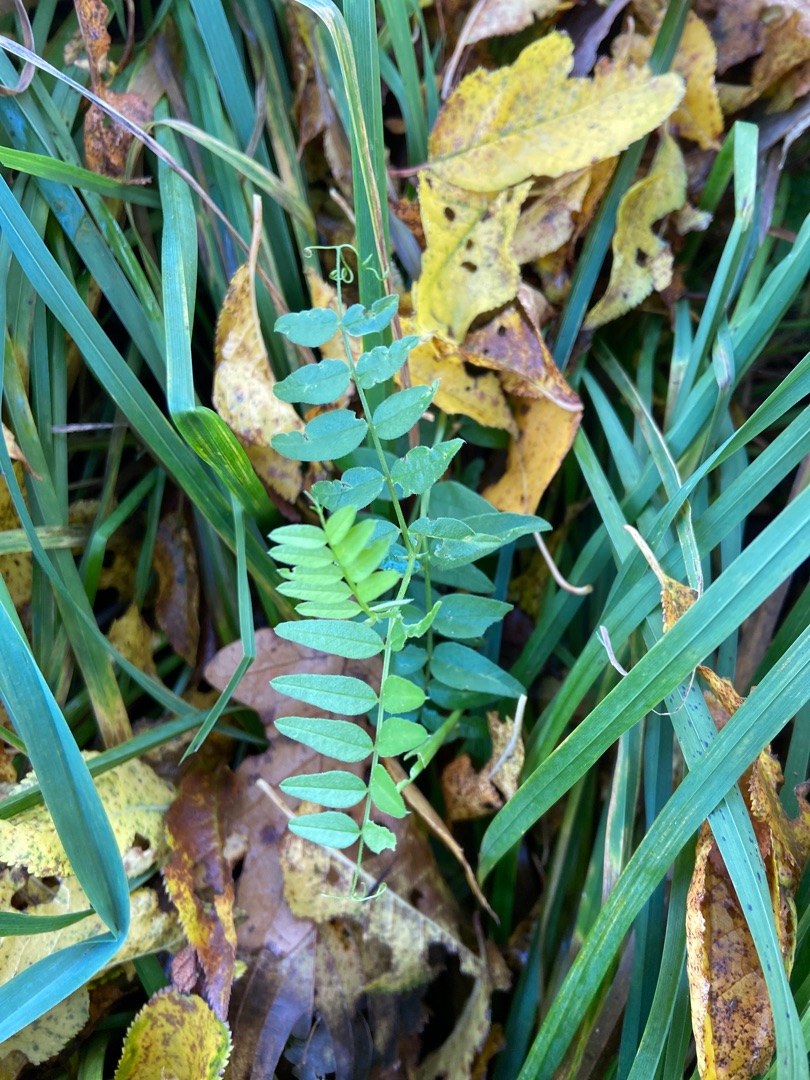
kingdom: Plantae
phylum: Tracheophyta
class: Magnoliopsida
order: Fabales
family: Fabaceae
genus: Vicia
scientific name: Vicia sepium
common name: Gærde-vikke
